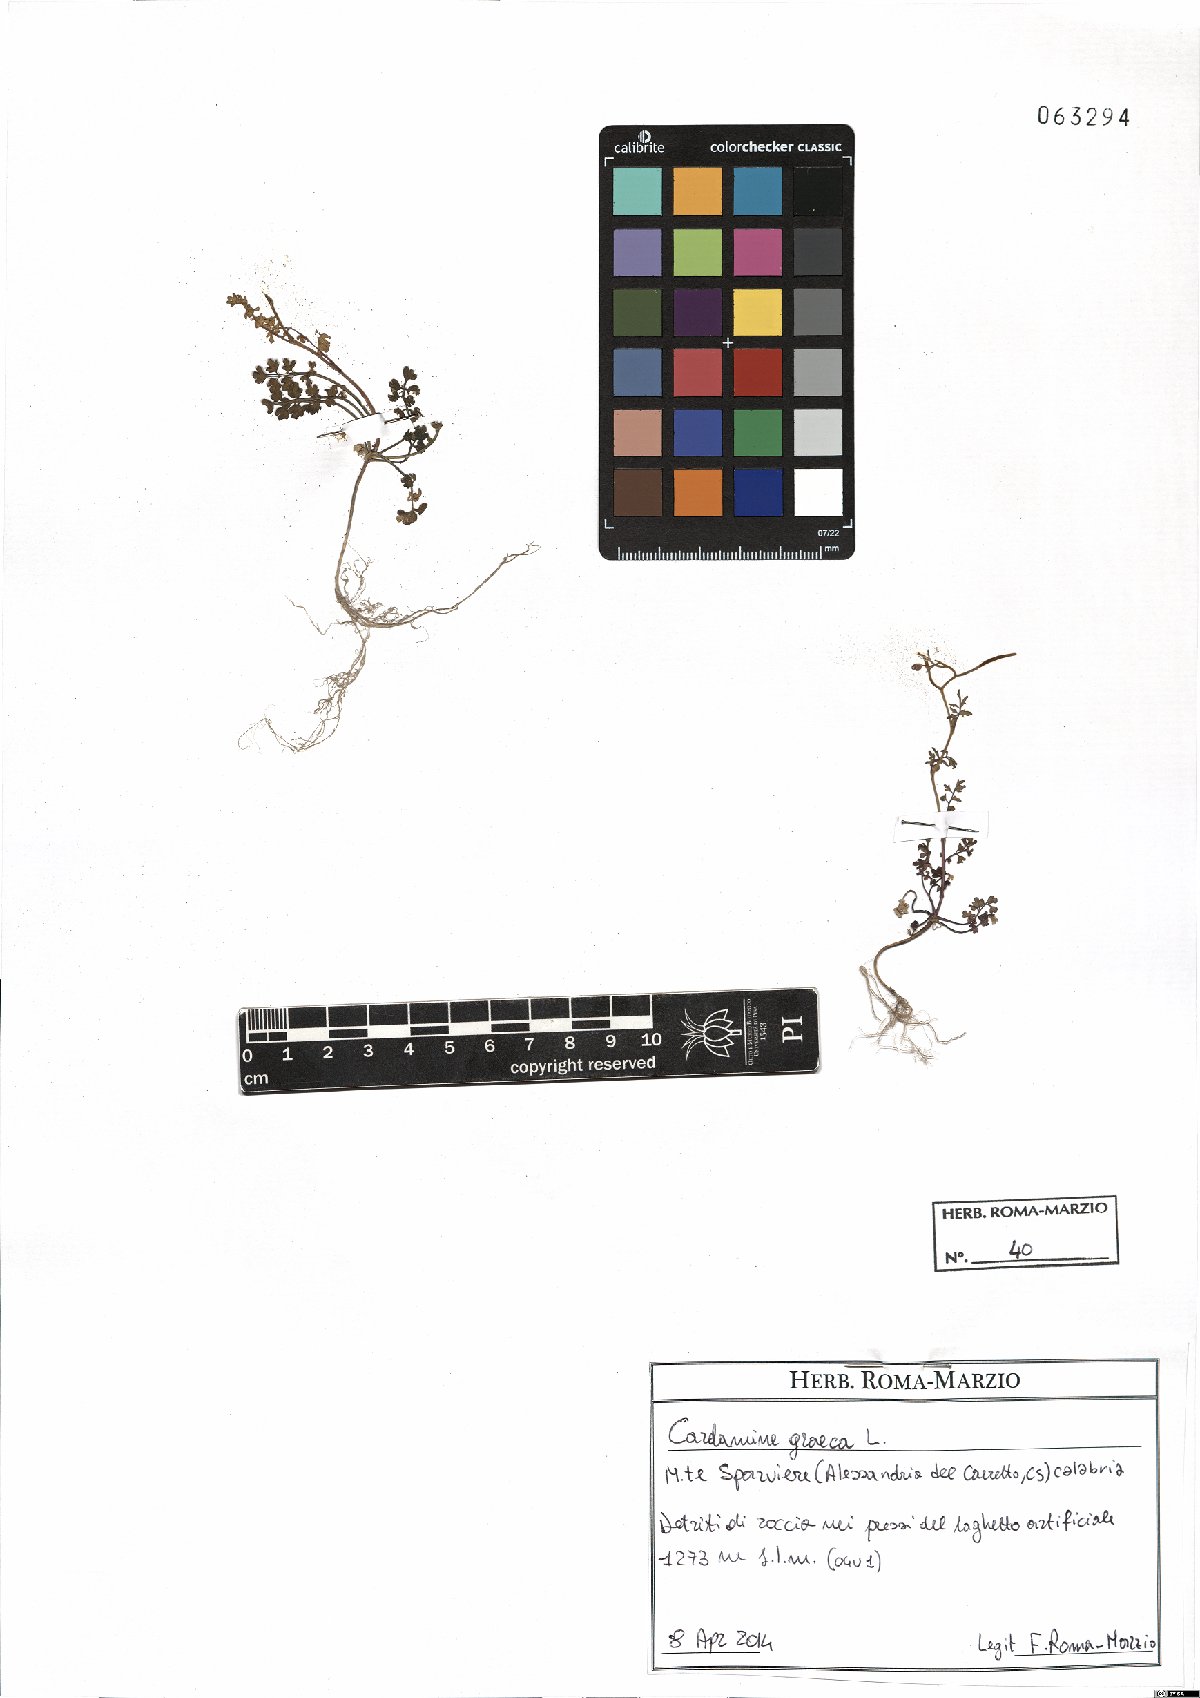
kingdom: Plantae
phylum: Tracheophyta
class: Magnoliopsida
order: Brassicales
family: Brassicaceae
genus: Cardamine
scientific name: Cardamine graeca
